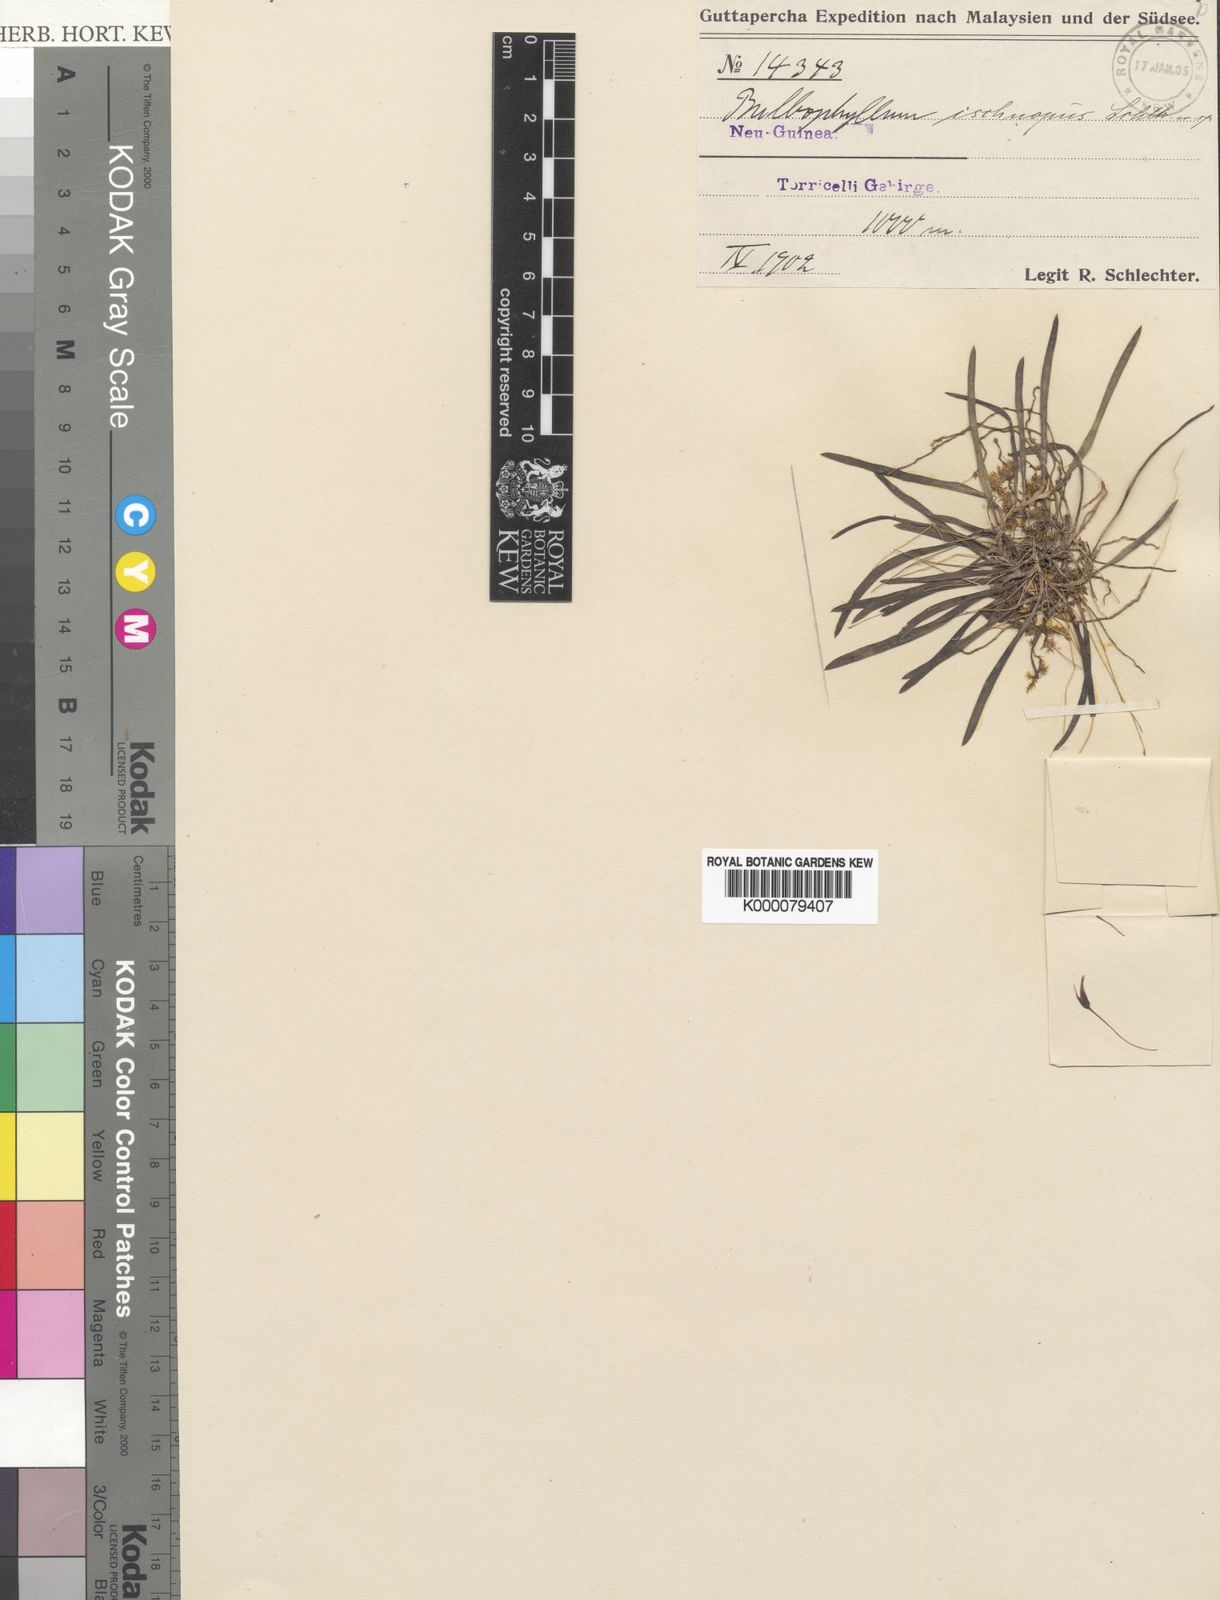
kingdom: Plantae
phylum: Tracheophyta
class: Liliopsida
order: Asparagales
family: Orchidaceae
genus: Bulbophyllum
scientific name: Bulbophyllum ischnopus
